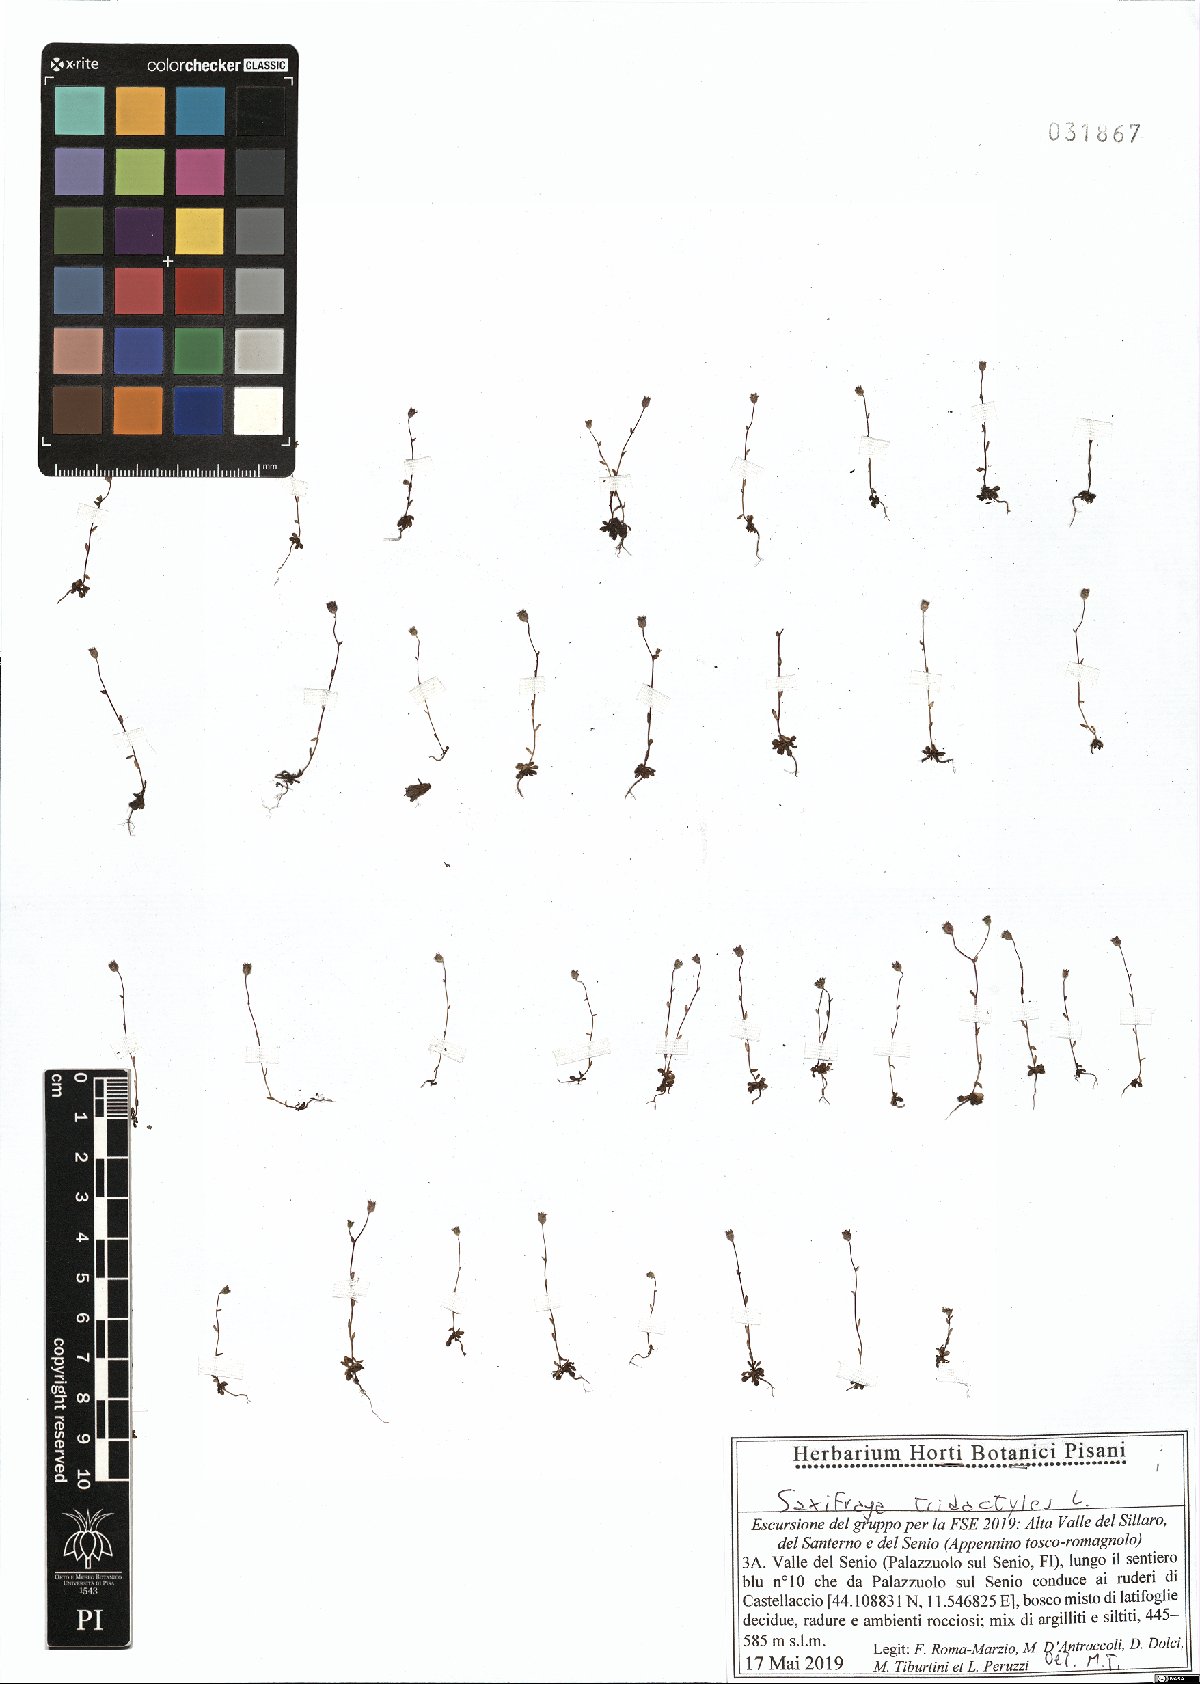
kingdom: Plantae
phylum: Tracheophyta
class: Magnoliopsida
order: Saxifragales
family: Saxifragaceae
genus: Saxifraga
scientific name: Saxifraga tridactylites
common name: Rue-leaved saxifrage
